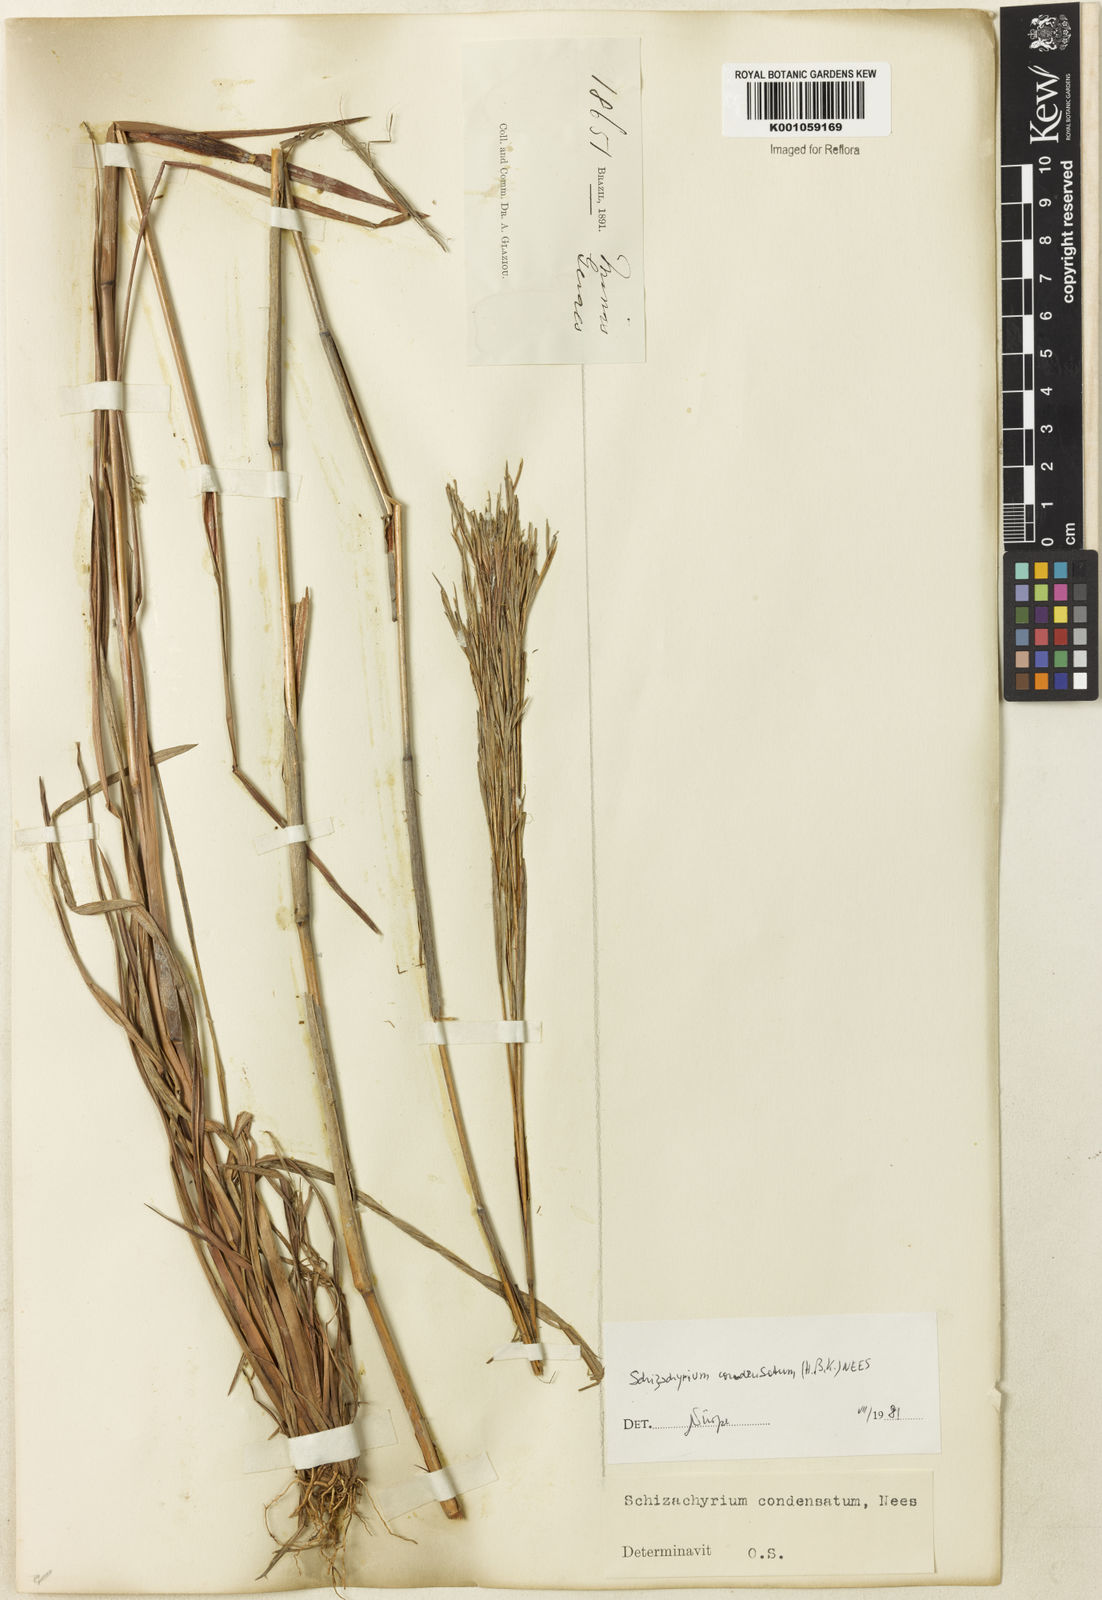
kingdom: Plantae
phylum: Tracheophyta
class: Liliopsida
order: Poales
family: Poaceae
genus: Schizachyrium
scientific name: Schizachyrium condensatum
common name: Bush beardgrass
